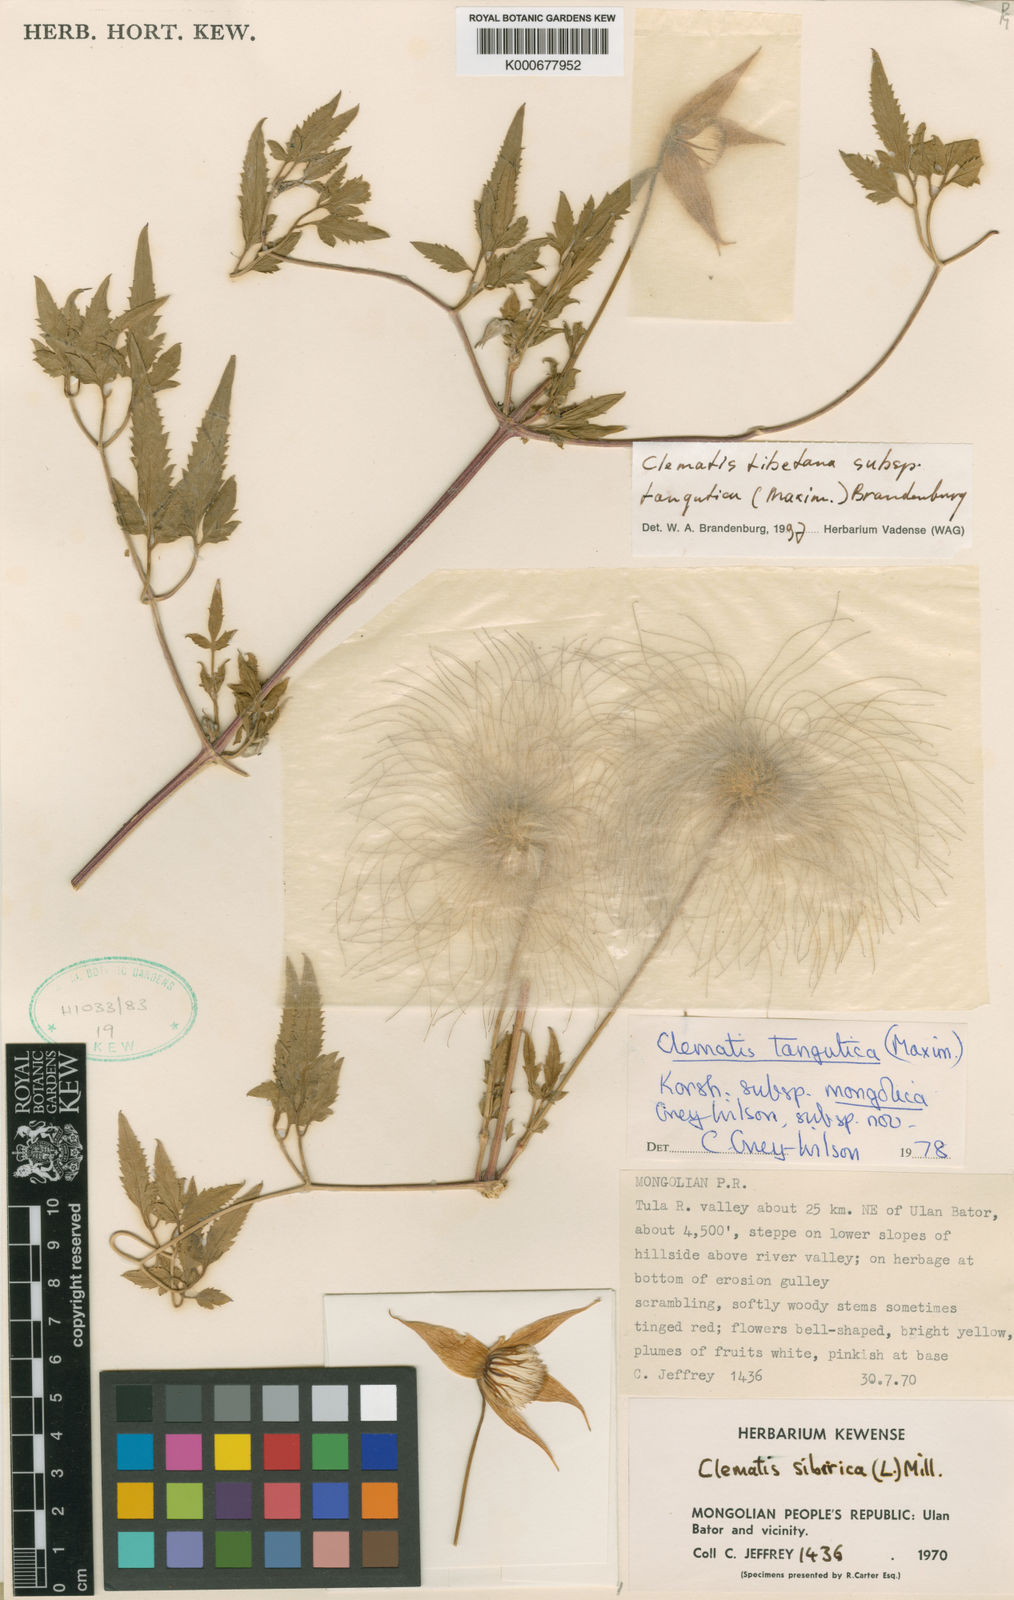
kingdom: Plantae
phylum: Tracheophyta
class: Magnoliopsida
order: Ranunculales
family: Ranunculaceae
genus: Clematis
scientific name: Clematis tangutica
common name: Orange-peel clematis
